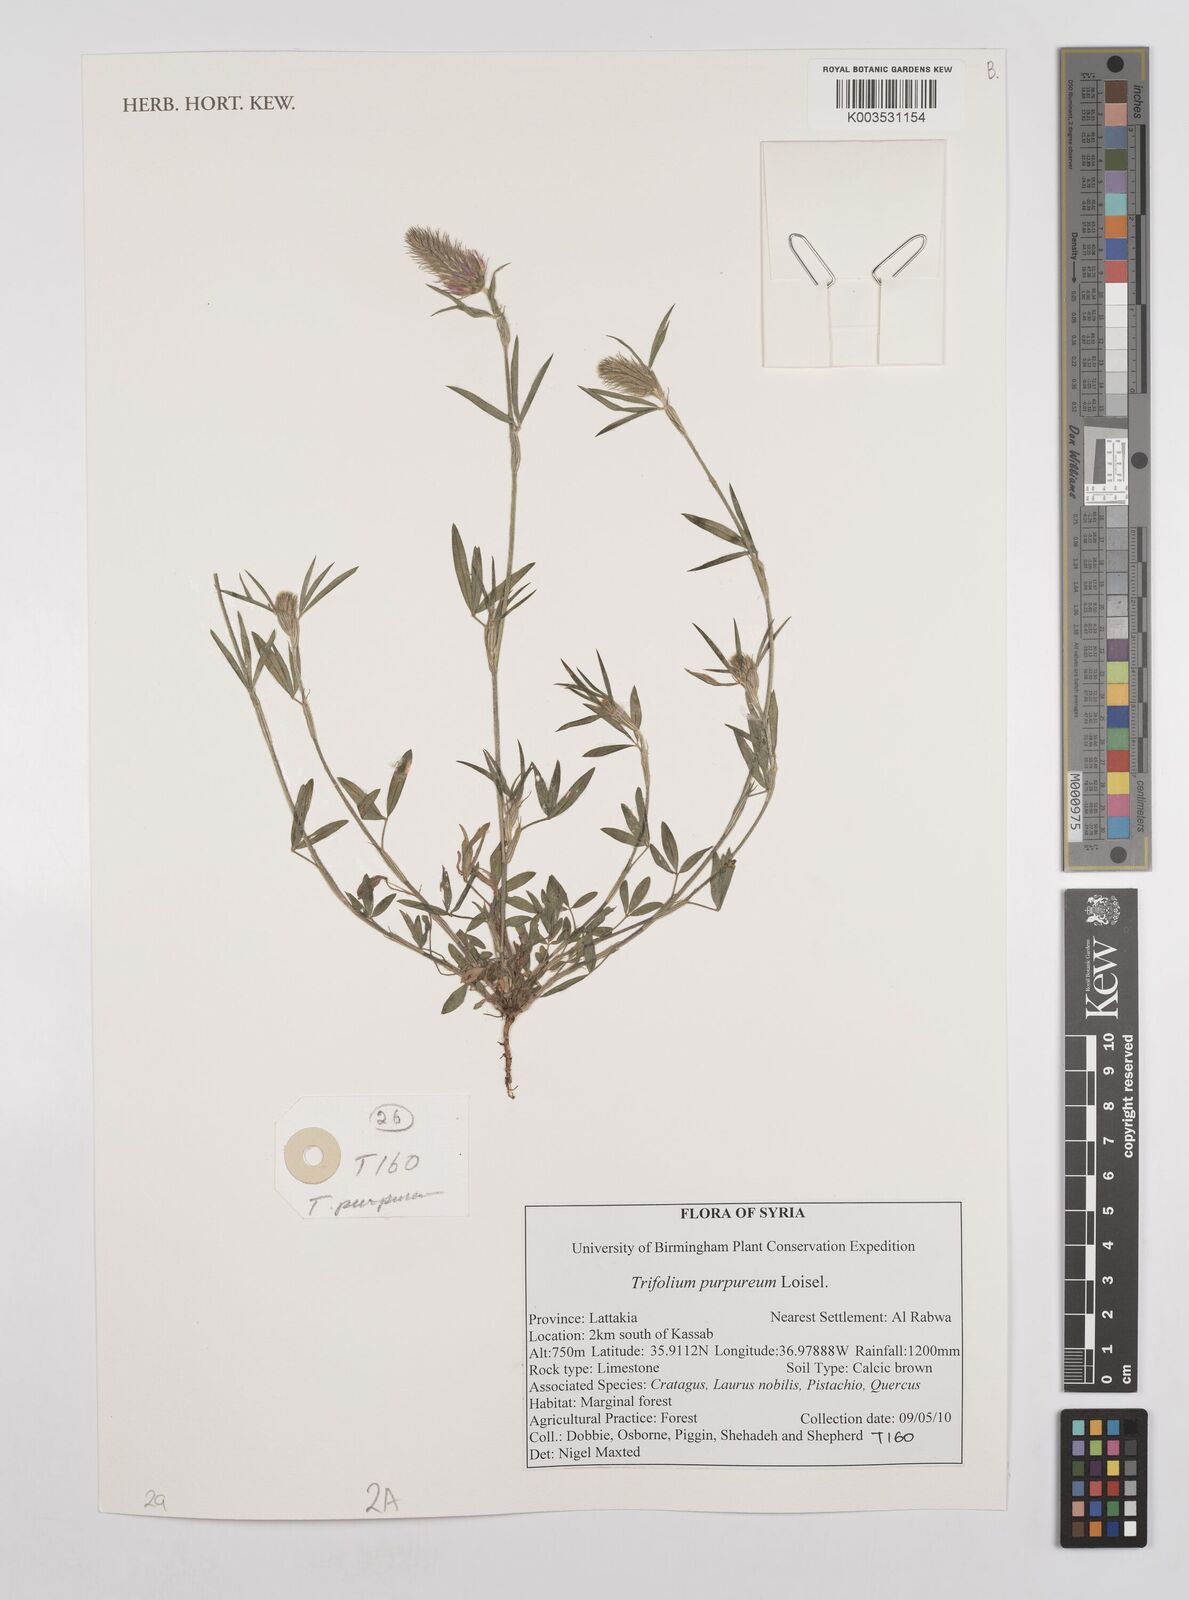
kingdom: Plantae
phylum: Tracheophyta
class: Magnoliopsida
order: Fabales
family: Fabaceae
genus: Trifolium
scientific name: Trifolium purpureum
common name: Purple clover
